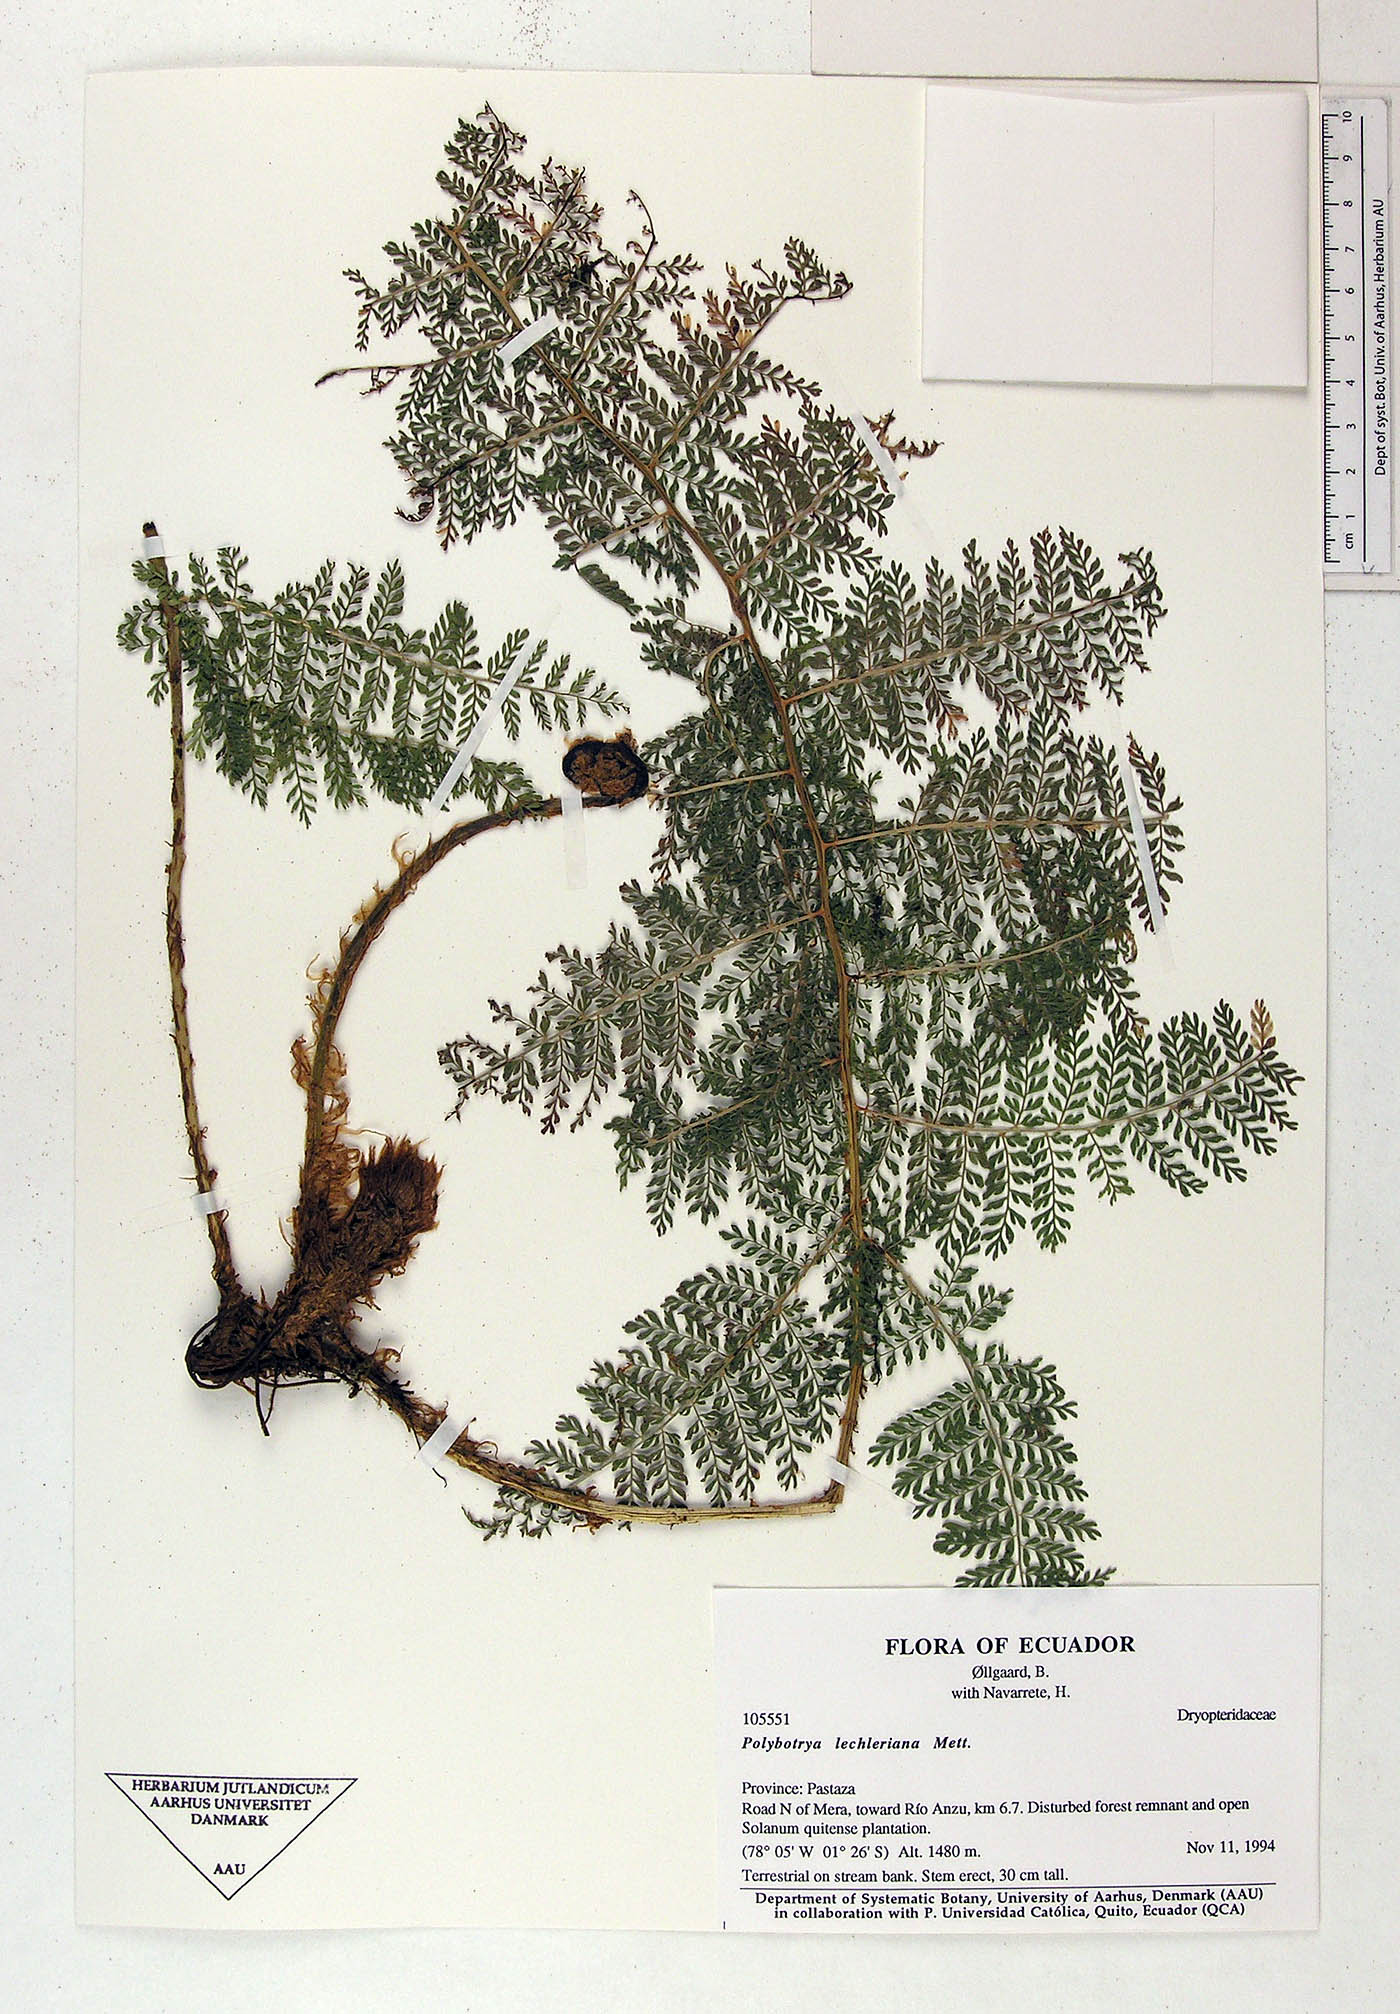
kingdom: Plantae
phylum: Tracheophyta
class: Polypodiopsida
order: Polypodiales
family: Dryopteridaceae
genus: Polybotrya
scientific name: Polybotrya lechleriana
